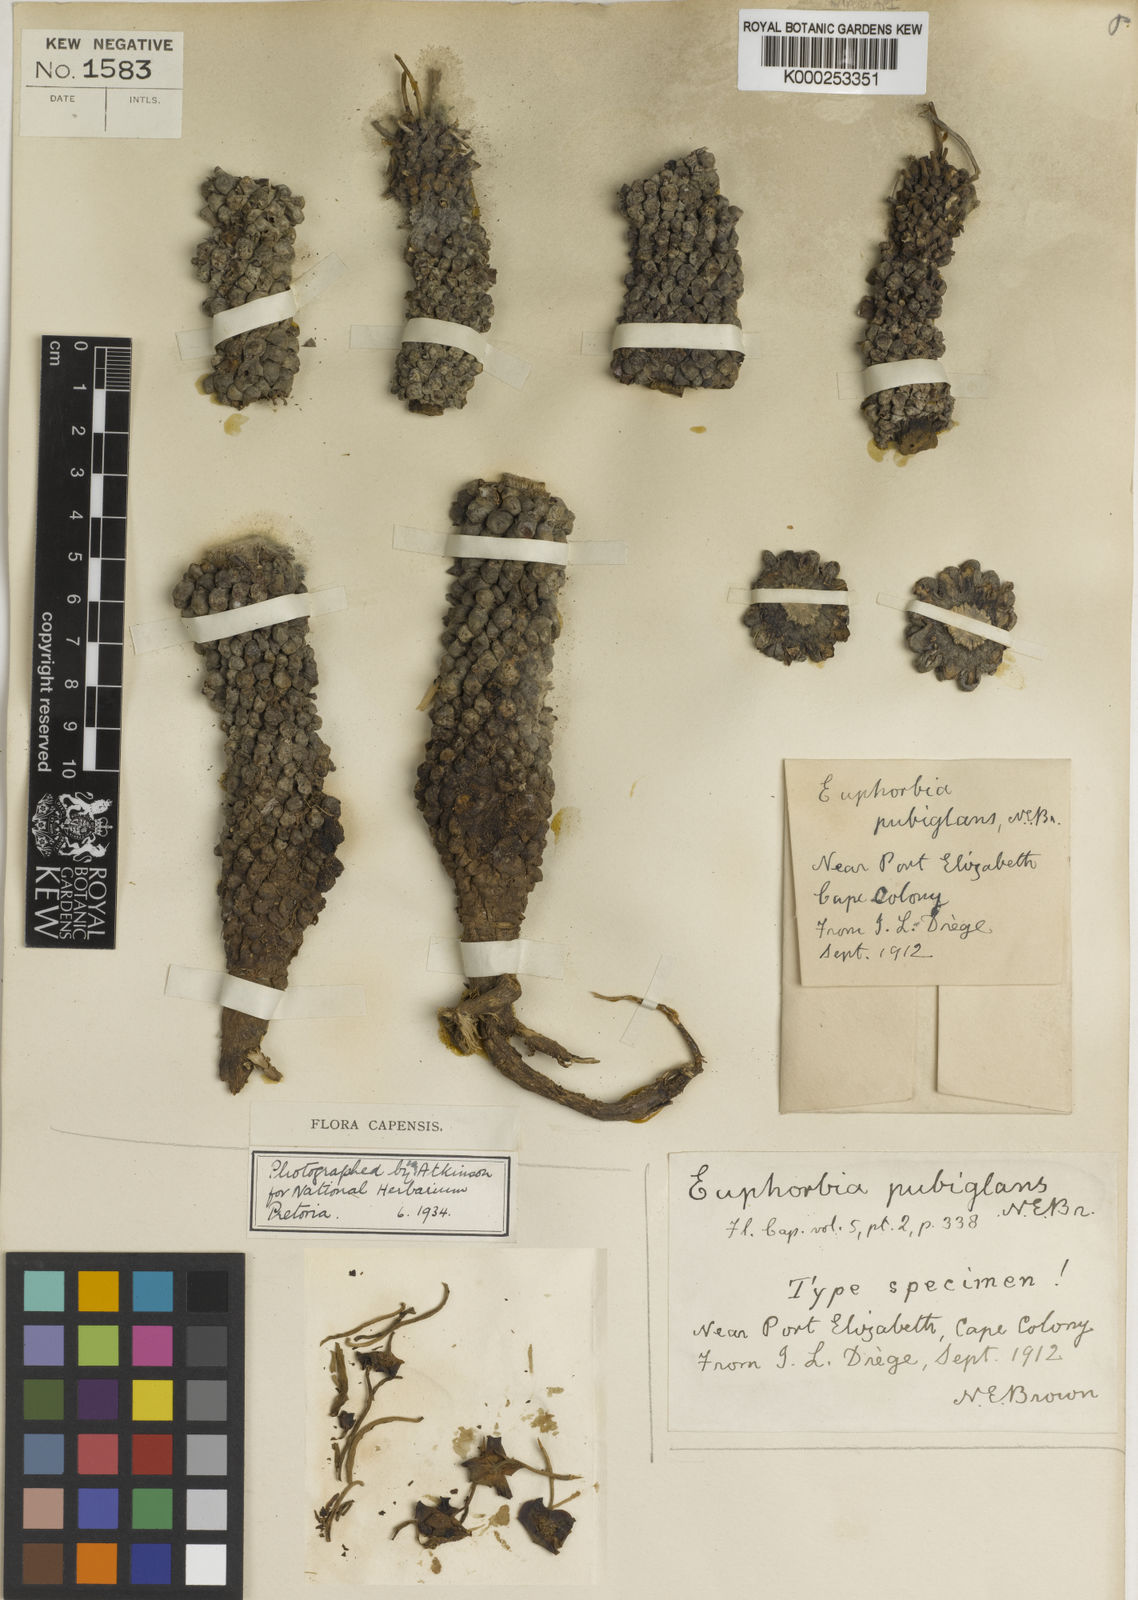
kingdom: Plantae
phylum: Tracheophyta
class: Magnoliopsida
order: Malpighiales
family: Euphorbiaceae
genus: Euphorbia
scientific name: Euphorbia pubiglans
